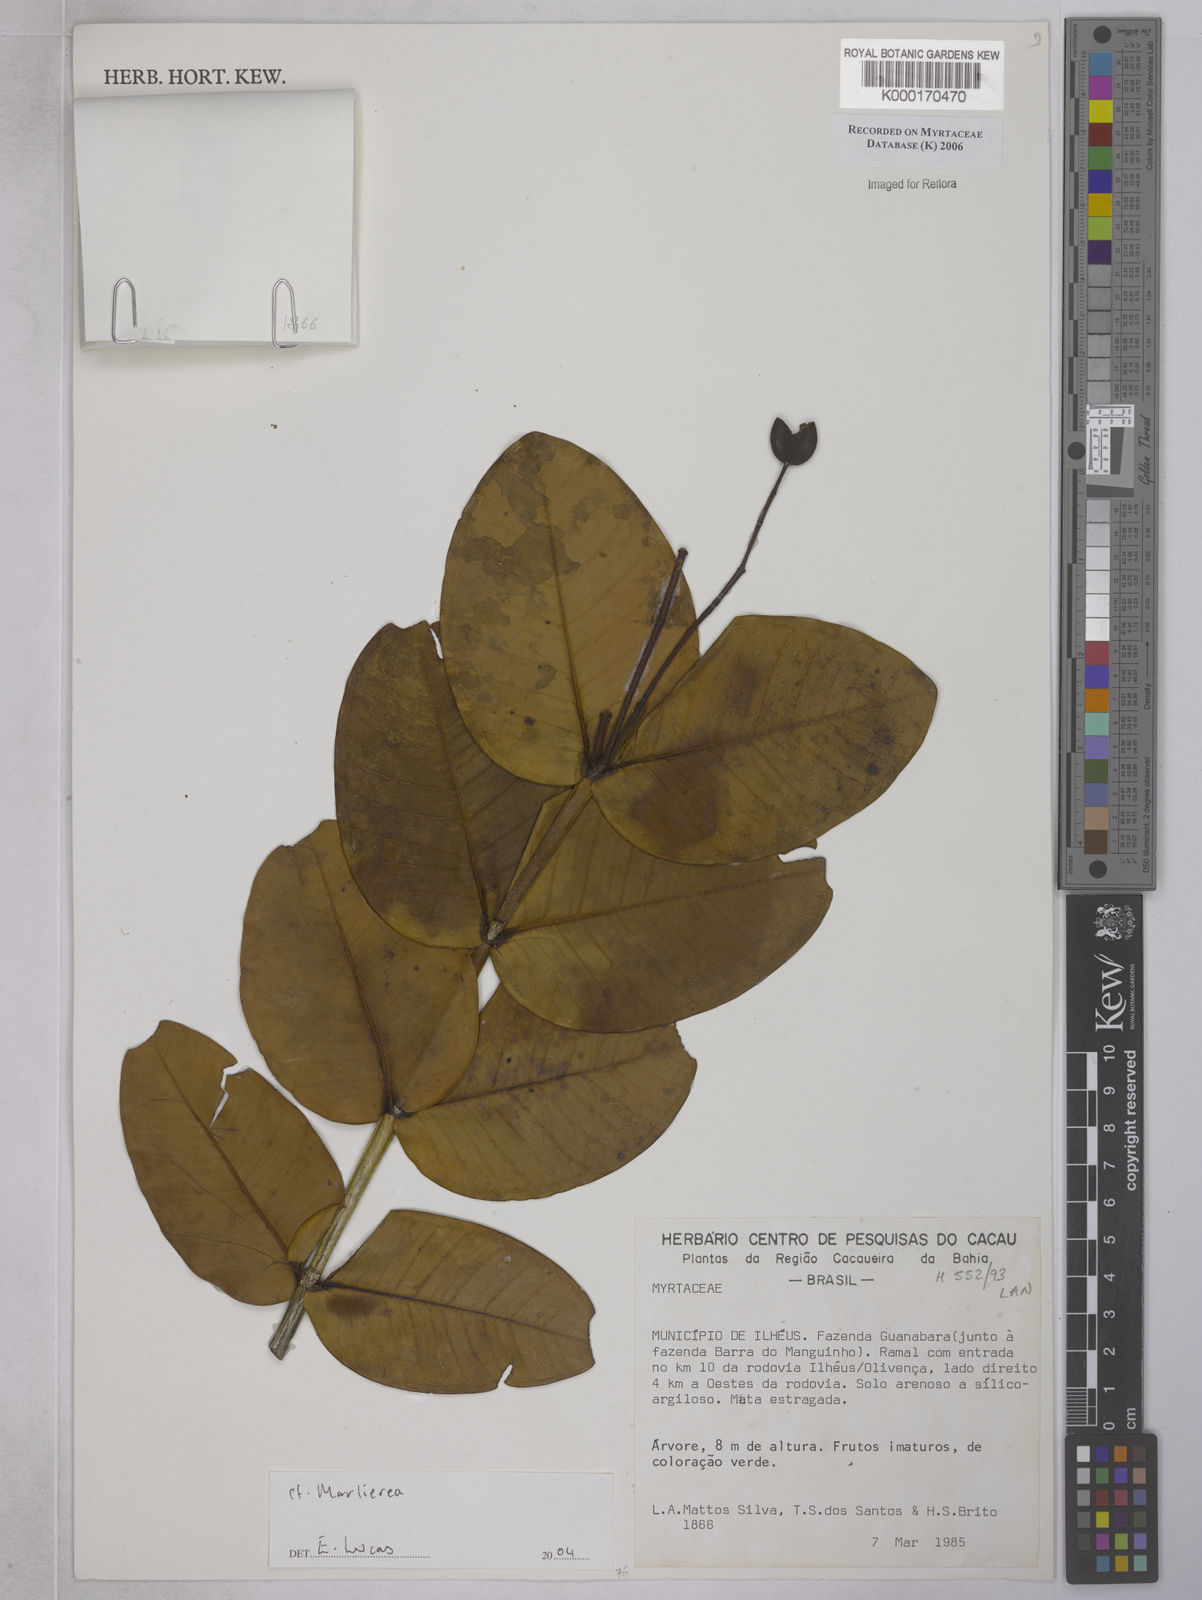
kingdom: Plantae
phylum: Tracheophyta
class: Magnoliopsida
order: Myrtales
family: Myrtaceae
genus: Marlierea
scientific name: Marlierea
